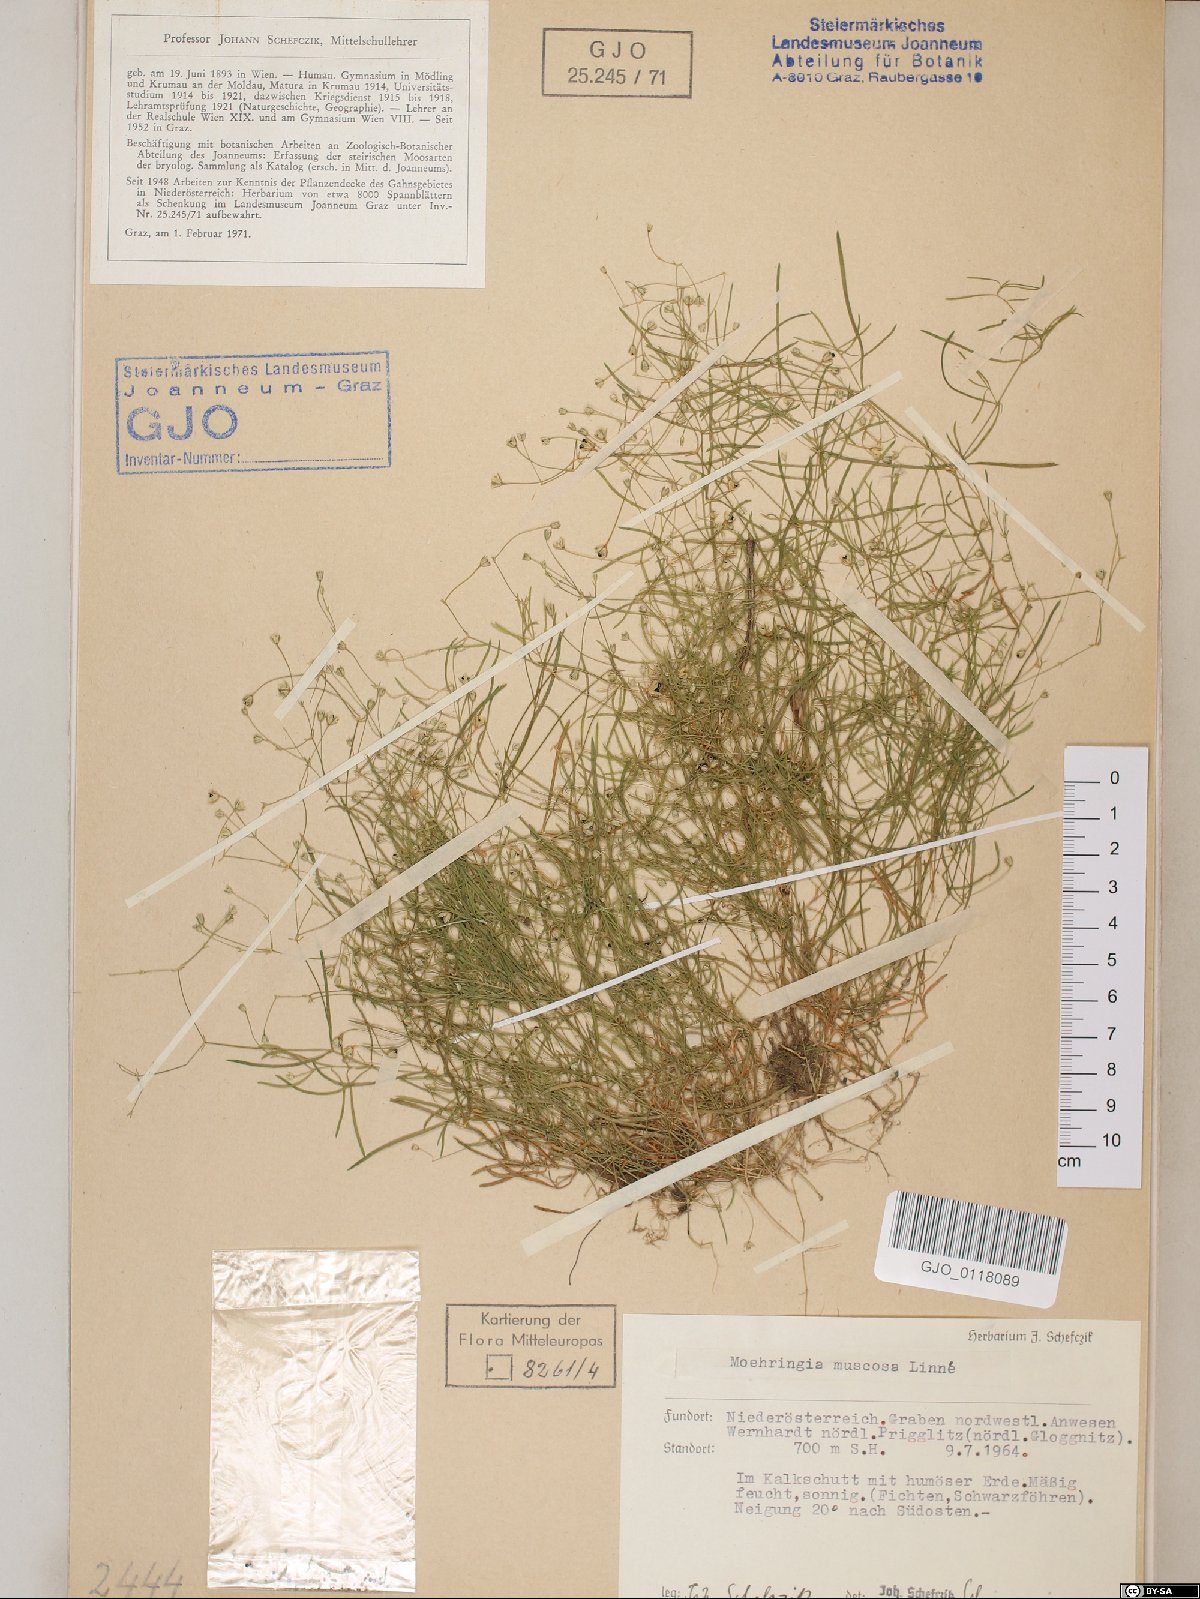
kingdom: Plantae
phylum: Tracheophyta
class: Magnoliopsida
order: Caryophyllales
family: Caryophyllaceae
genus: Moehringia
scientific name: Moehringia muscosa
